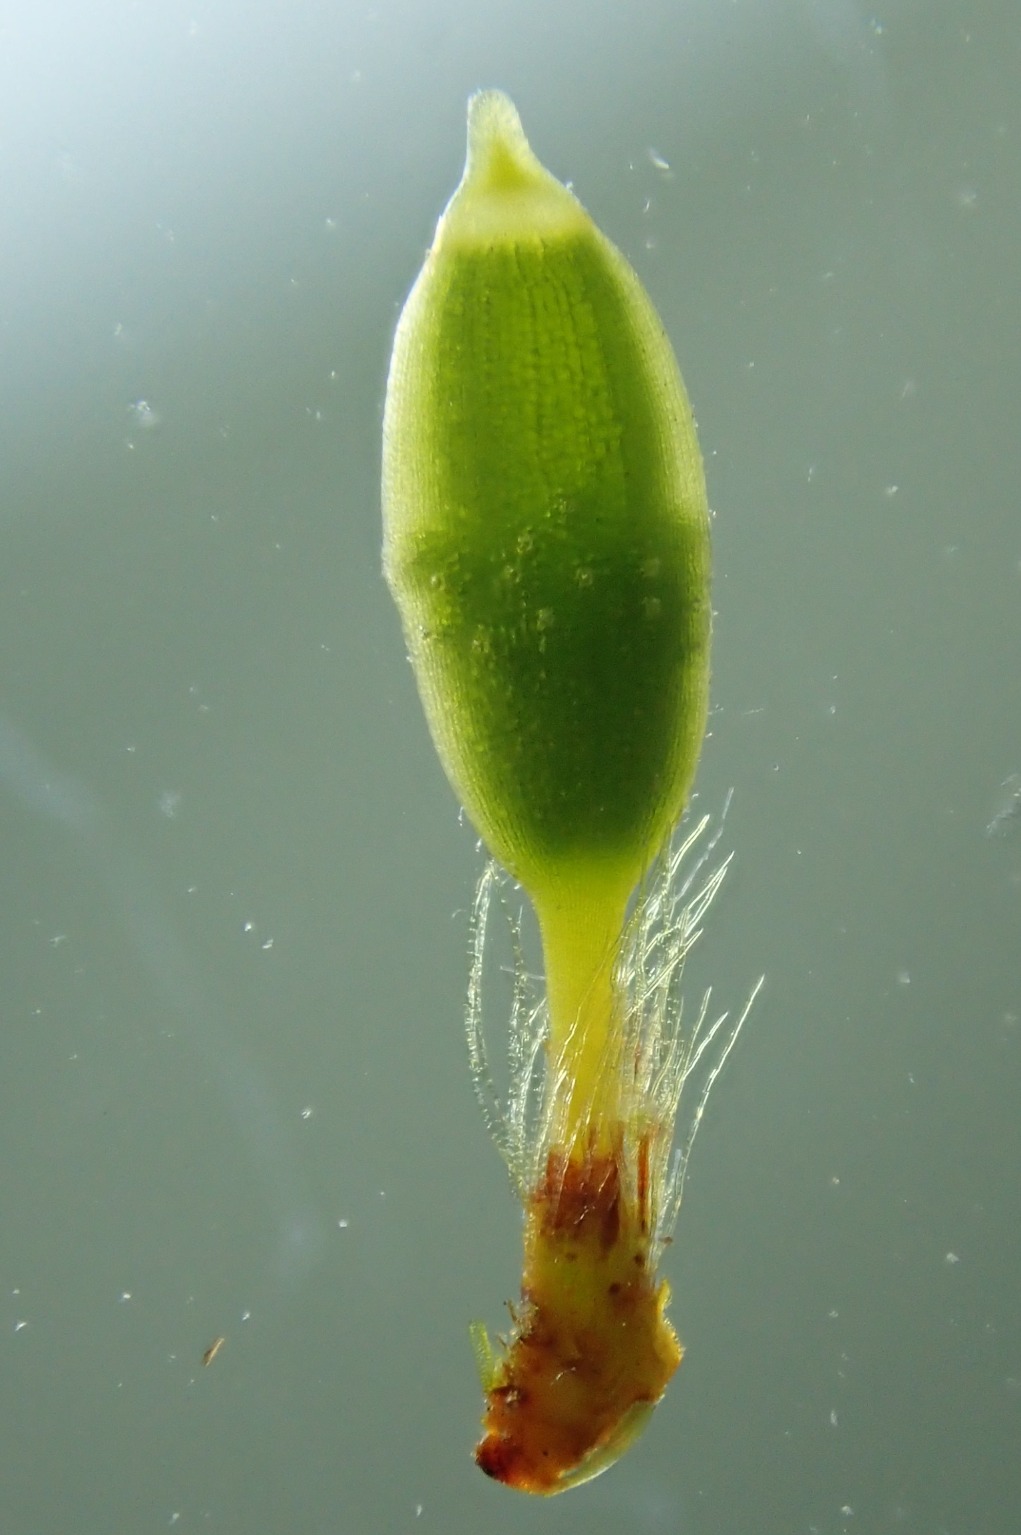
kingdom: Plantae
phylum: Bryophyta
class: Bryopsida
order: Orthotrichales
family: Orthotrichaceae
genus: Orthotrichum
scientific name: Orthotrichum stramineum
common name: Strågul furehætte
